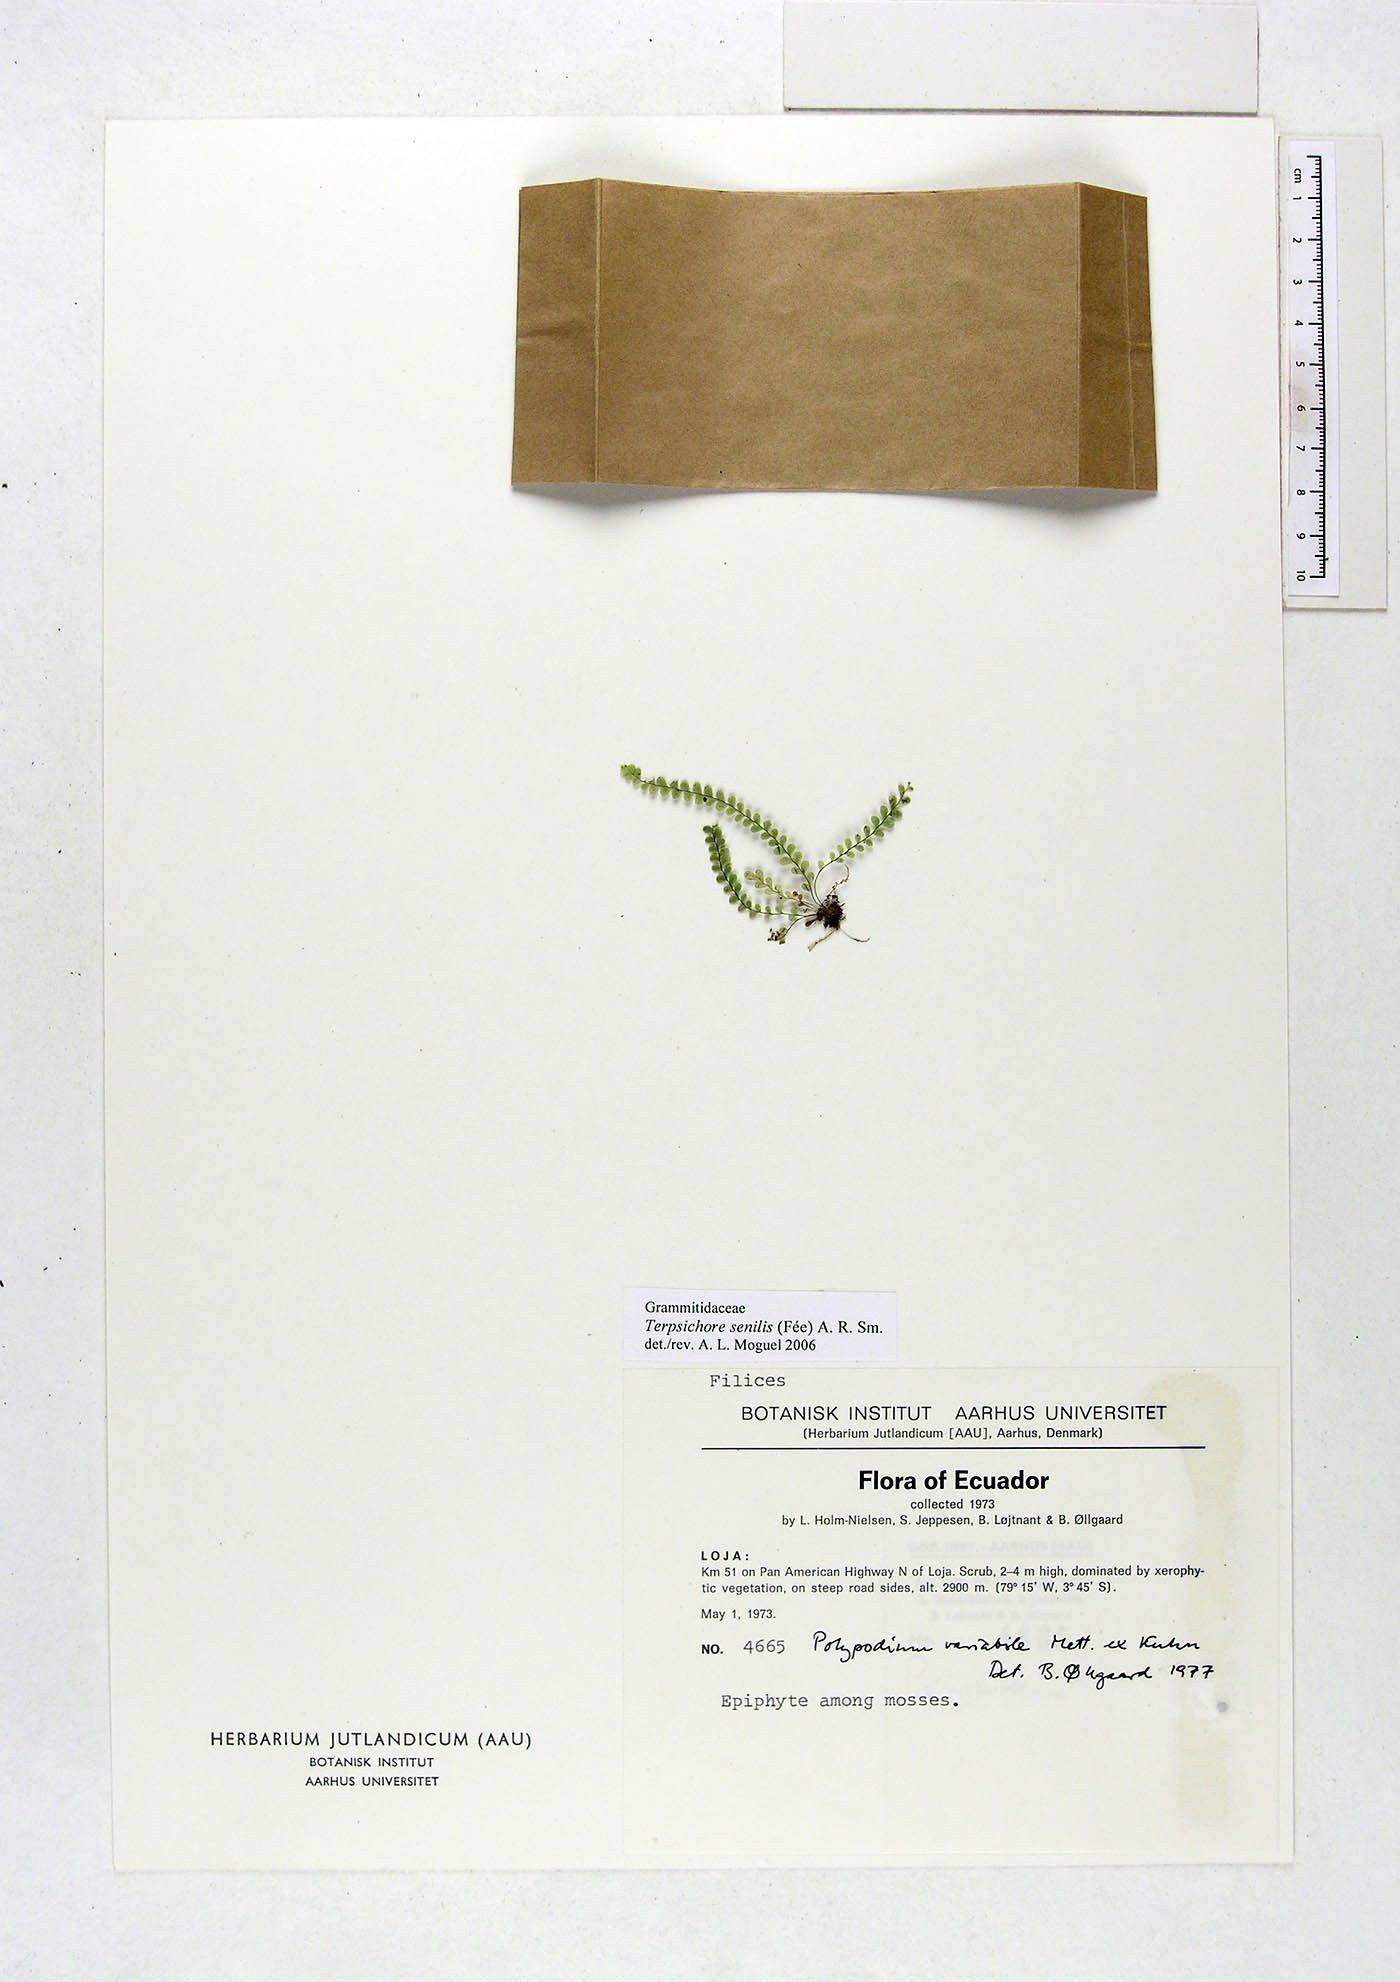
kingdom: Plantae
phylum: Tracheophyta
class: Polypodiopsida
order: Polypodiales
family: Polypodiaceae
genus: Alansmia
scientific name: Alansmia senilis
